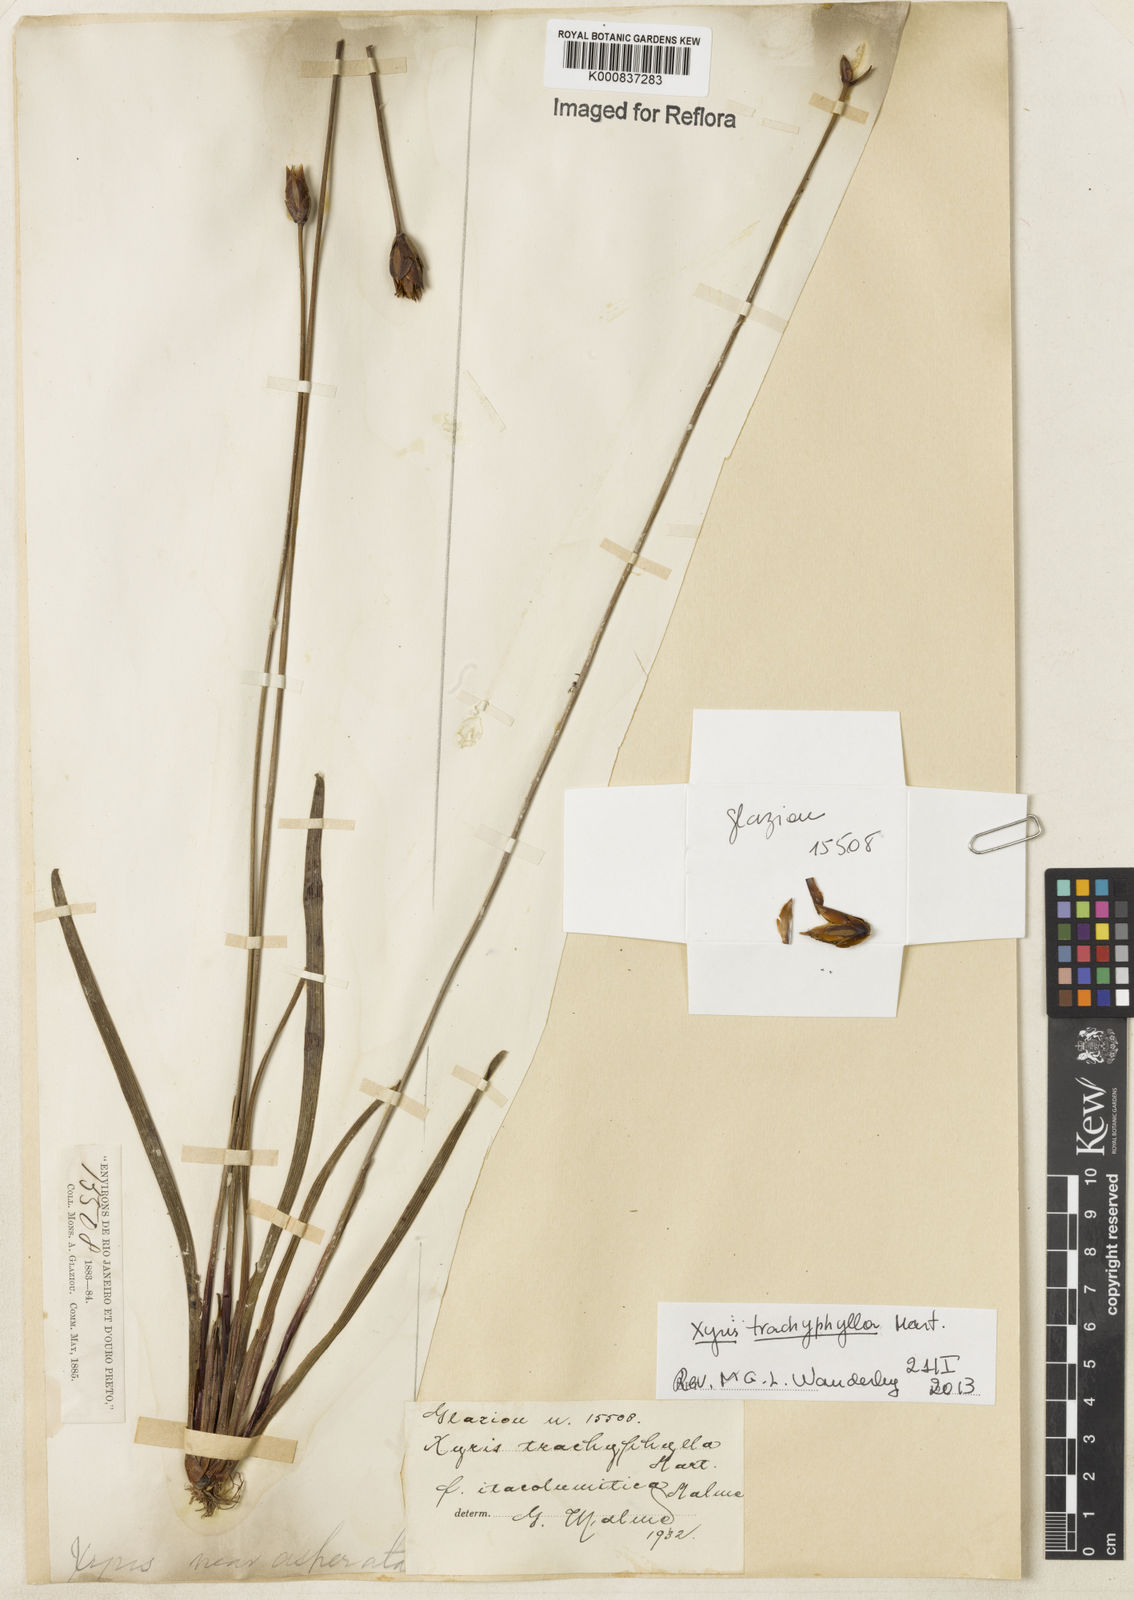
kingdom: Plantae
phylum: Tracheophyta
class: Liliopsida
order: Poales
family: Xyridaceae
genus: Xyris
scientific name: Xyris trachyphylla
